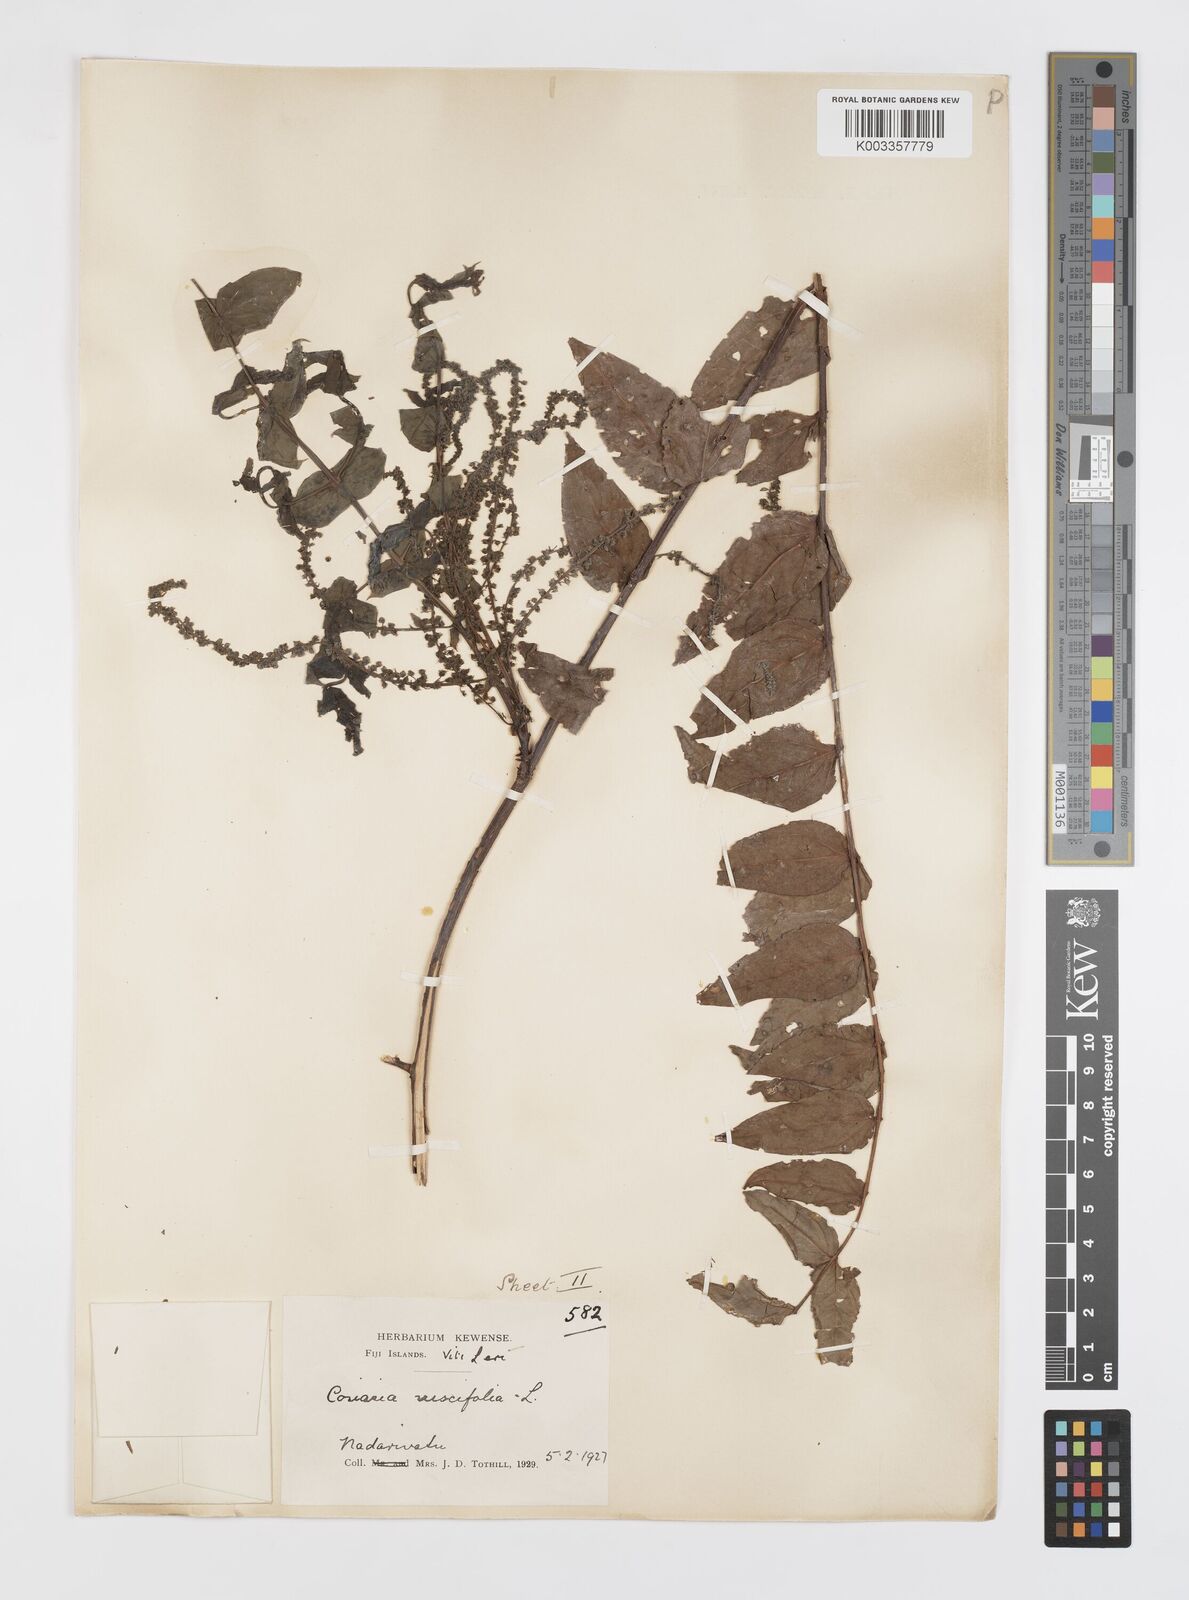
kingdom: Plantae
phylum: Tracheophyta
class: Magnoliopsida
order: Cucurbitales
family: Coriariaceae
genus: Coriaria
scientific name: Coriaria ruscifolia
